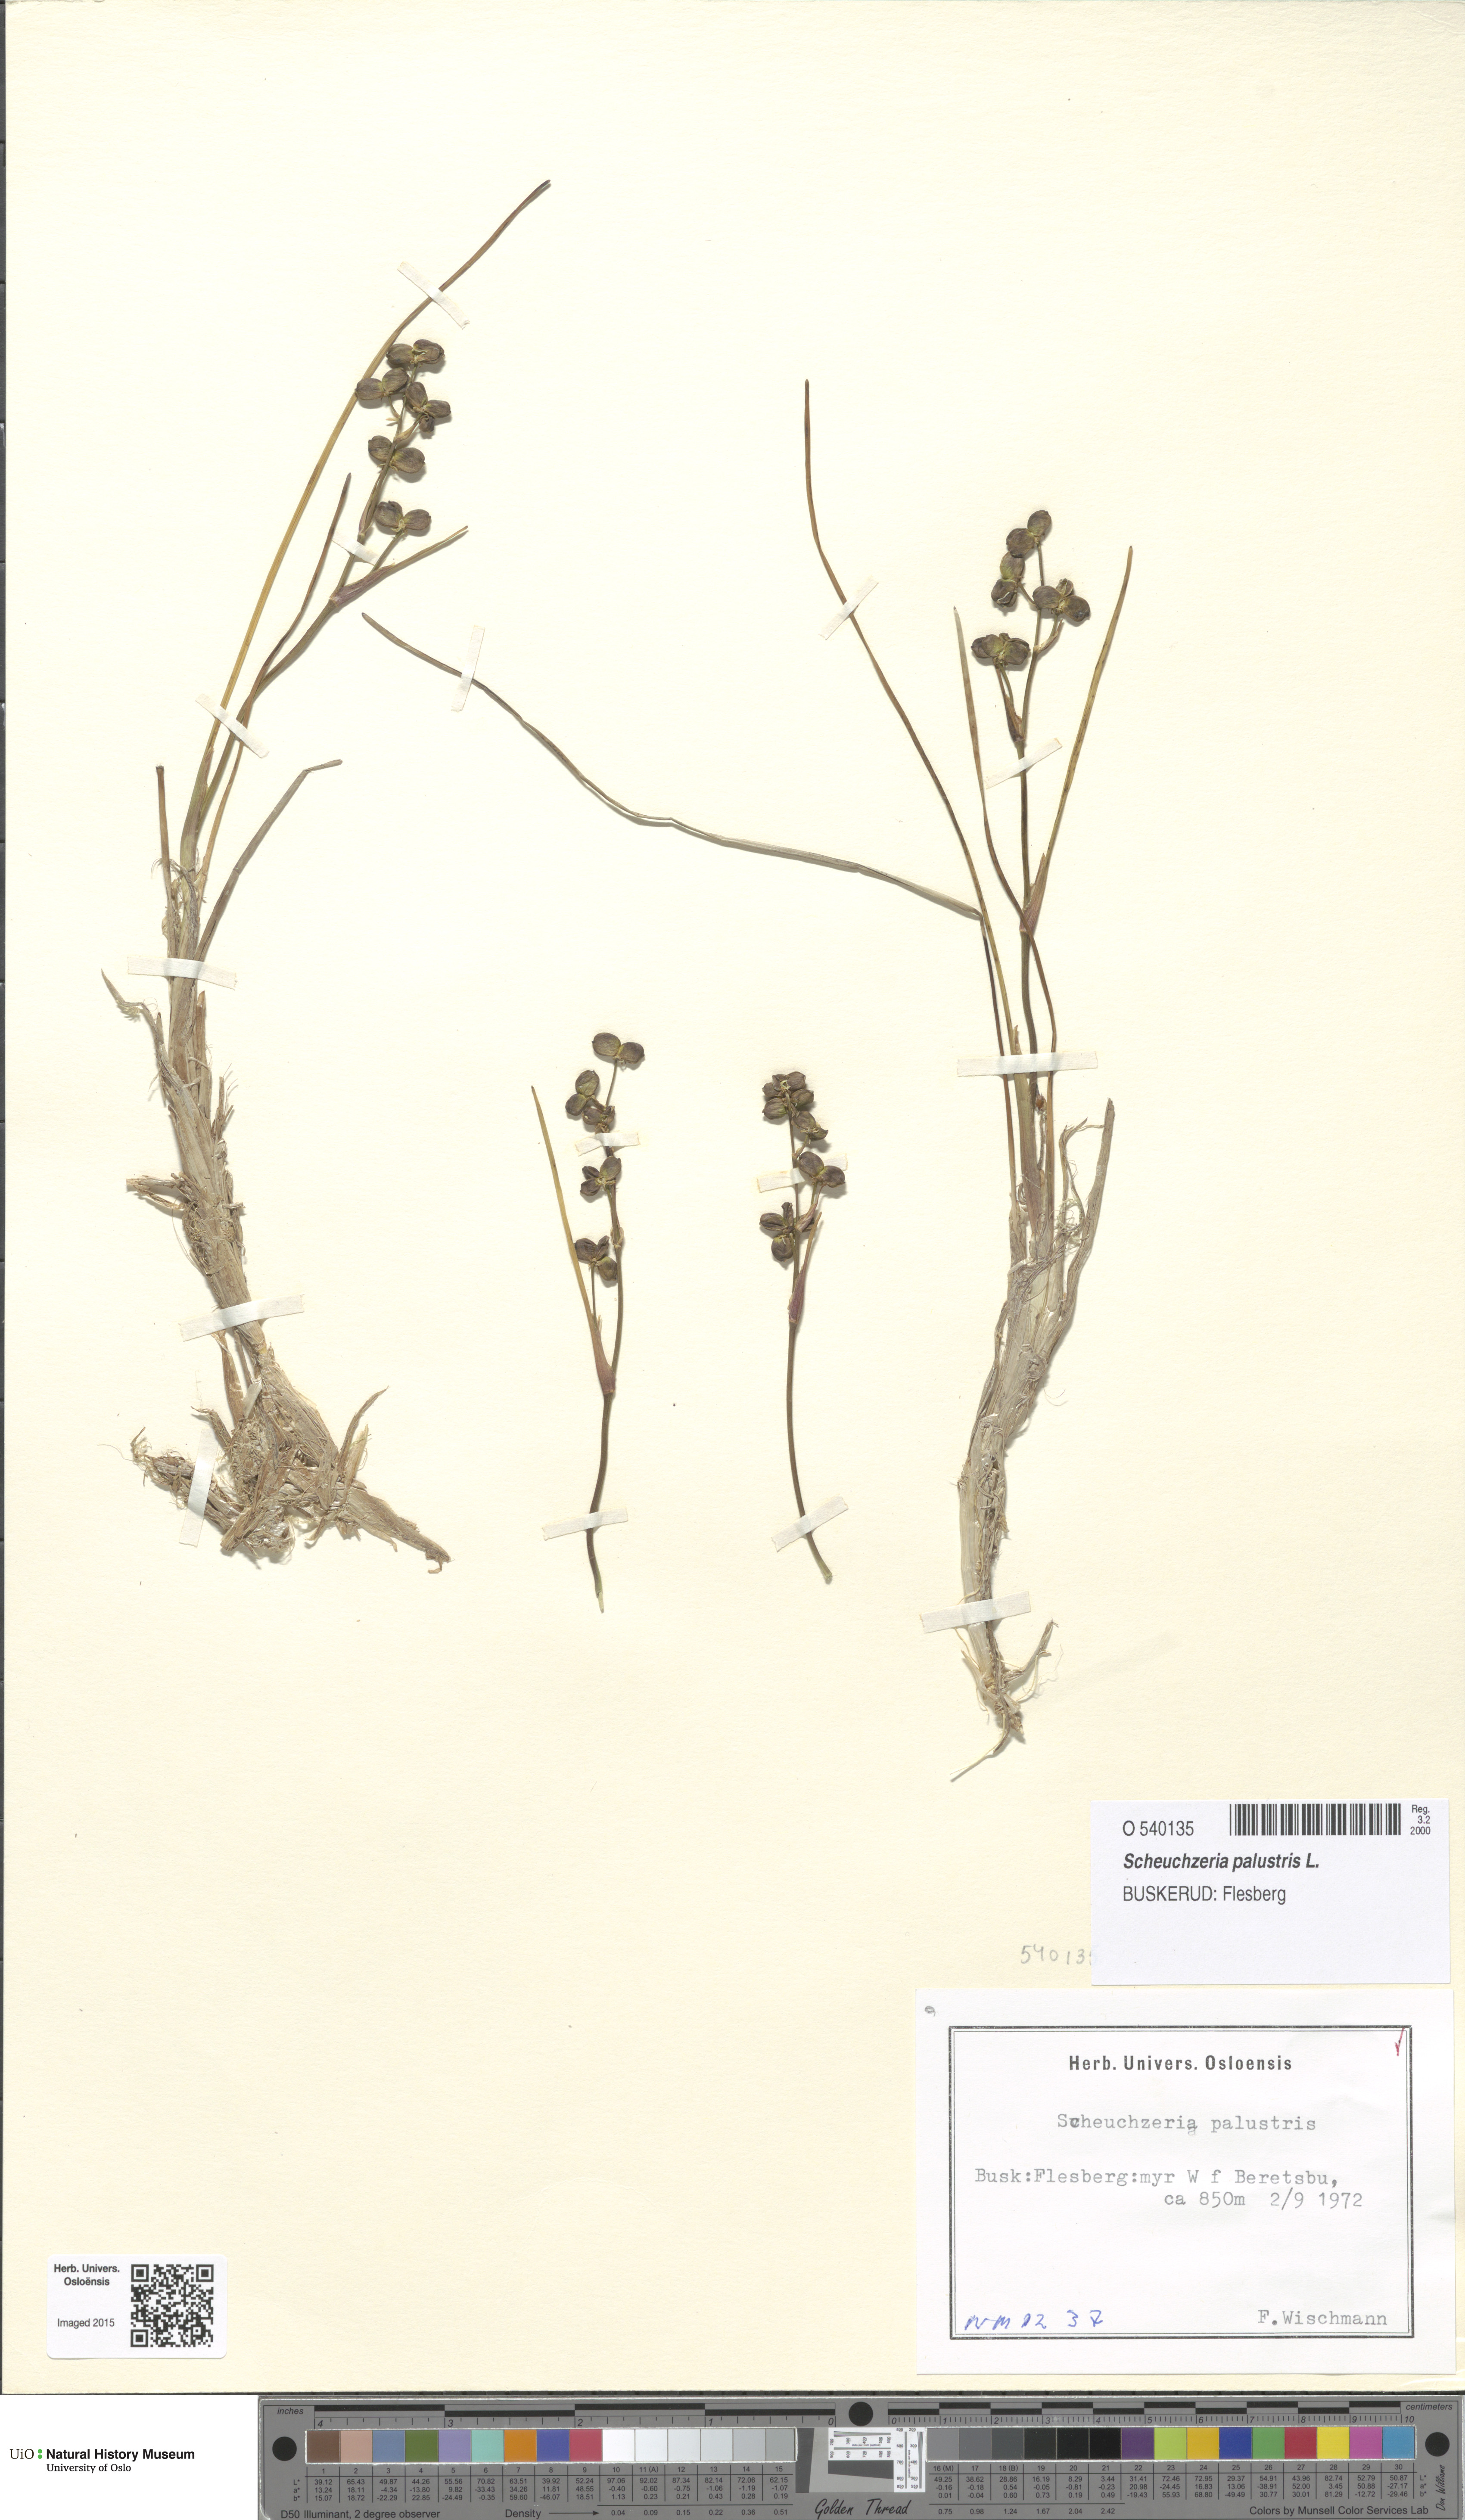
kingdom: Plantae
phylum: Tracheophyta
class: Liliopsida
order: Alismatales
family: Scheuchzeriaceae
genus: Scheuchzeria
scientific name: Scheuchzeria palustris
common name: Rannoch-rush
